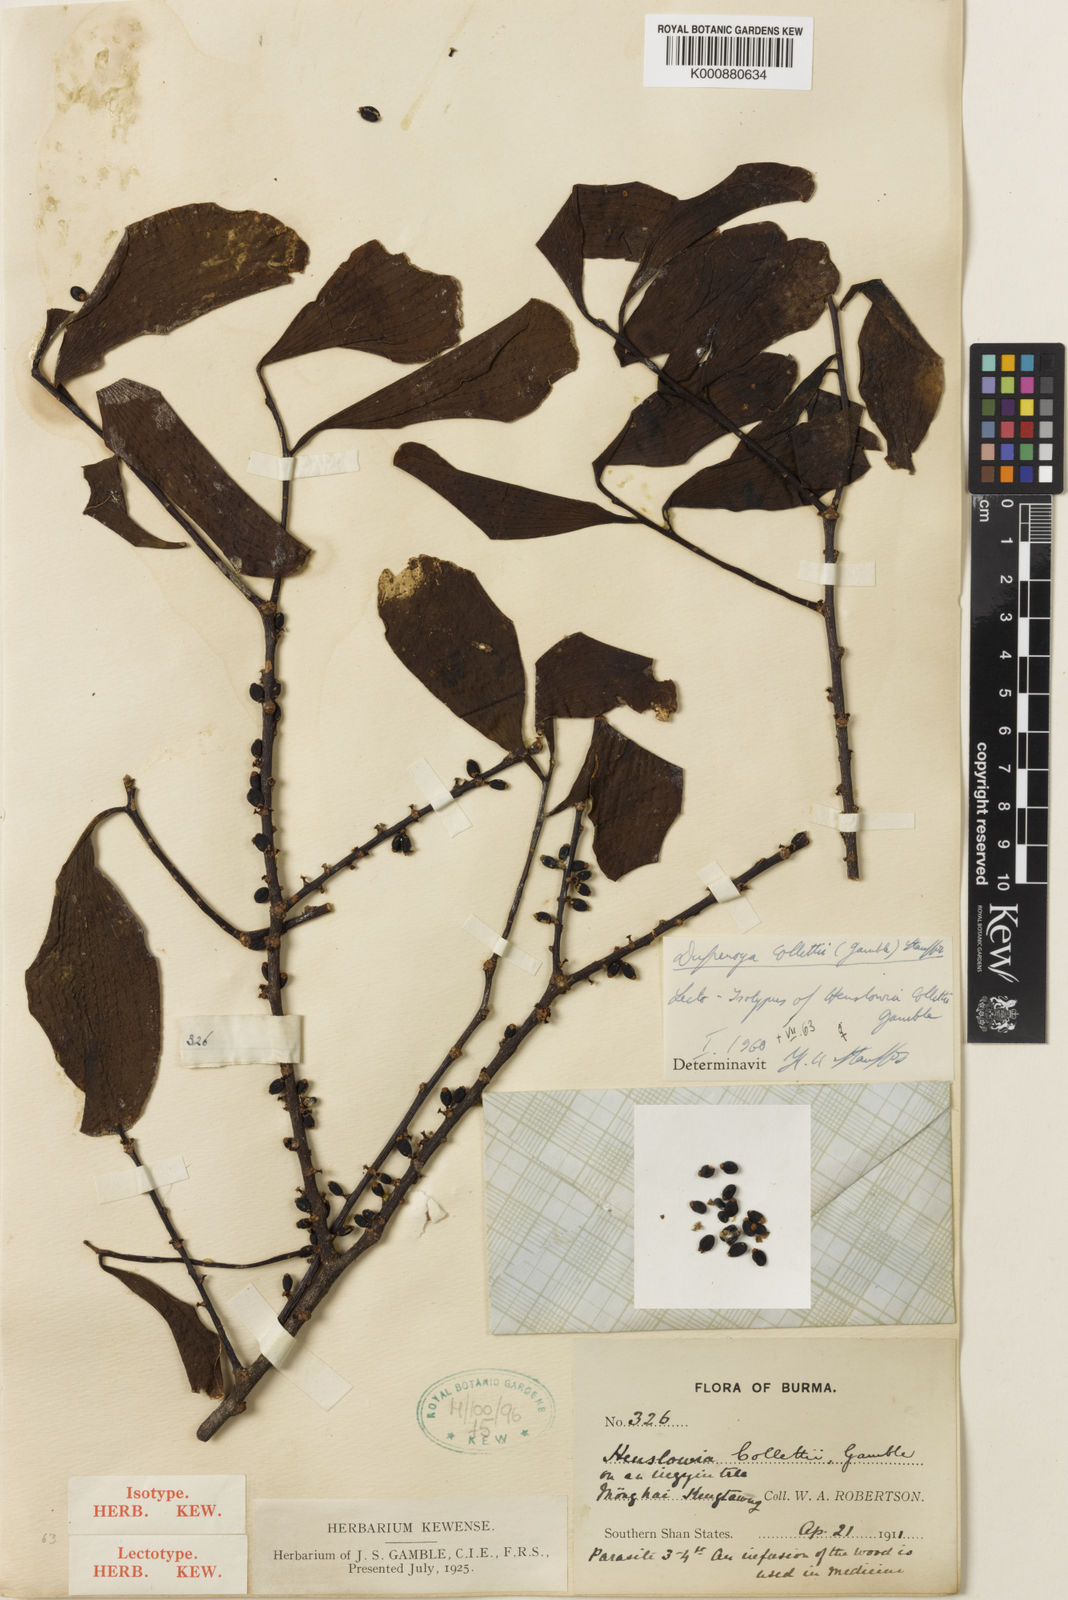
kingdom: Plantae
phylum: Tracheophyta
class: Magnoliopsida
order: Santalales
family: Amphorogynaceae
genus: Dufrenoya
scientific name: Dufrenoya collettii
